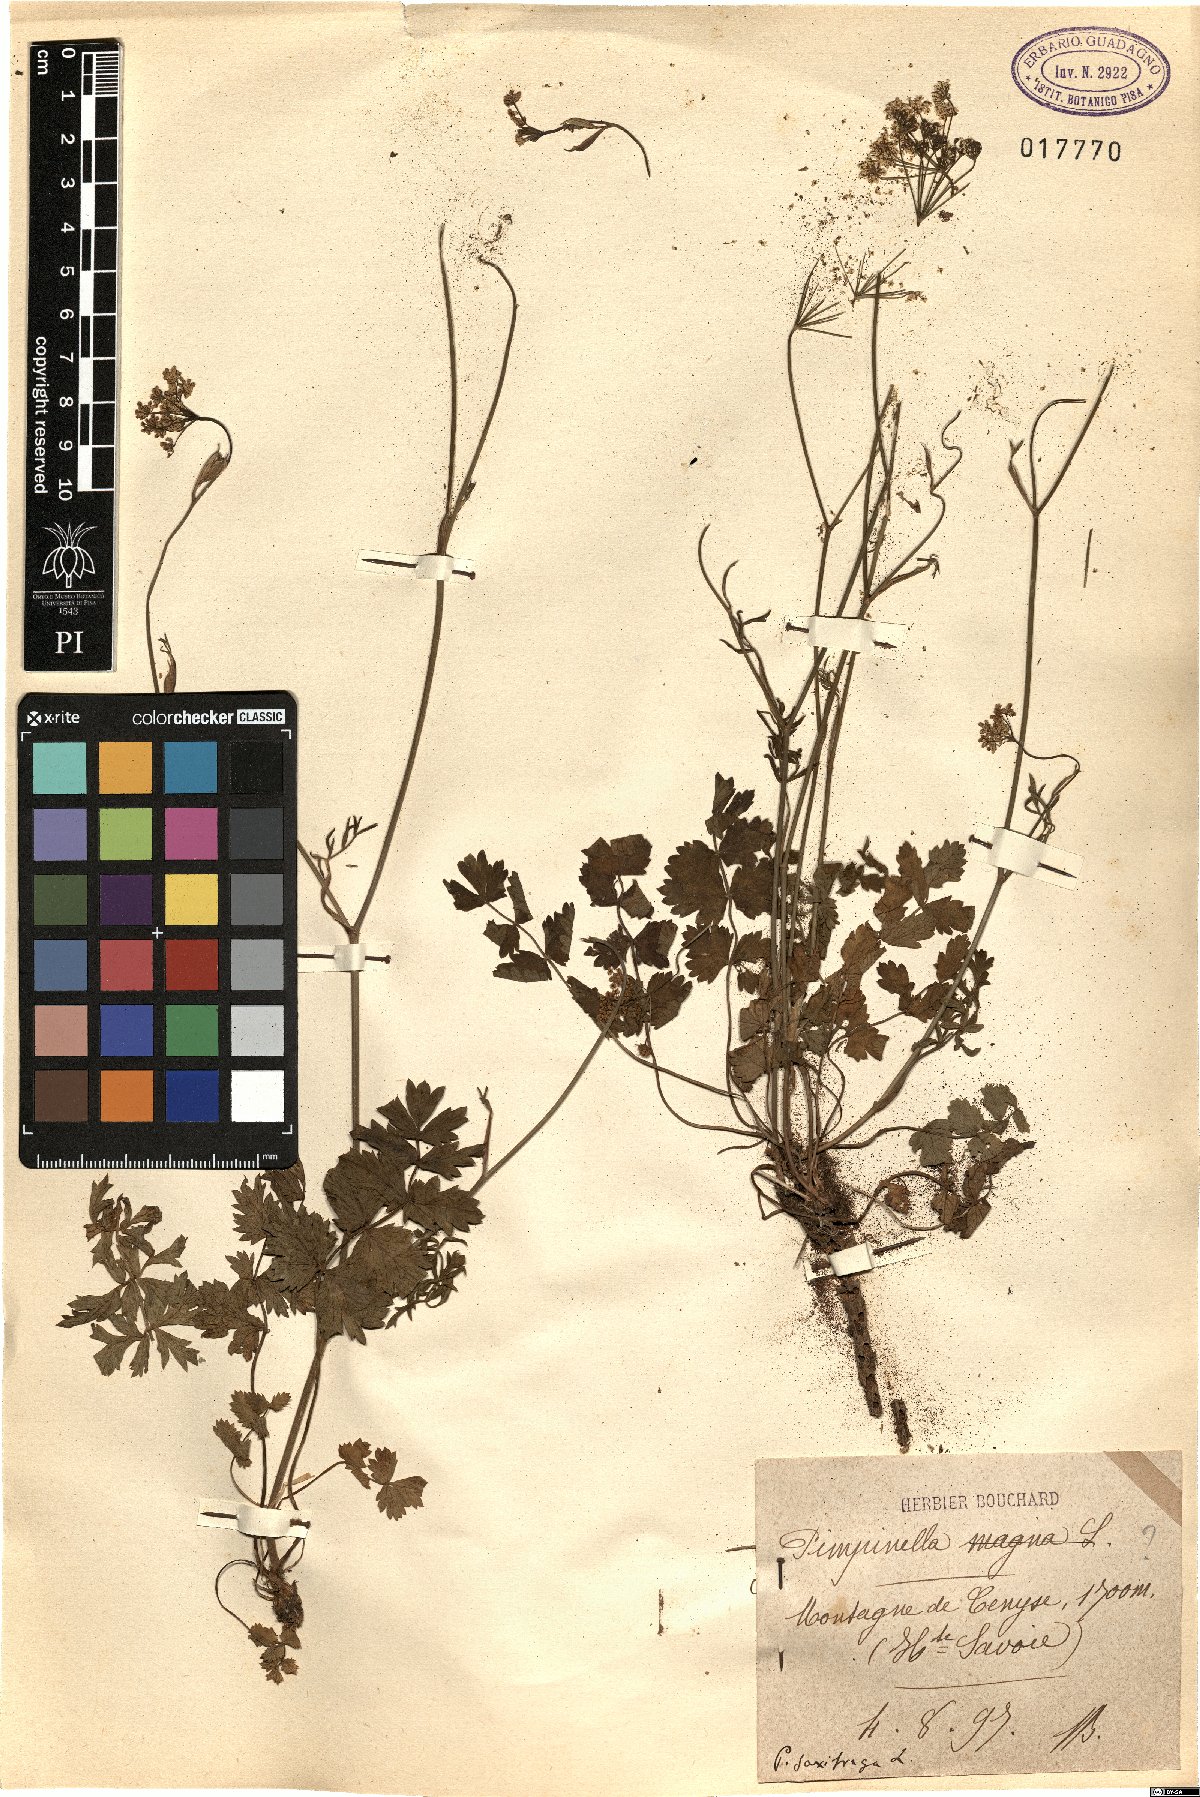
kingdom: Plantae
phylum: Tracheophyta
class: Magnoliopsida
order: Apiales
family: Apiaceae
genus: Pimpinella
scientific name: Pimpinella saxifraga
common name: Burnet-saxifrage
